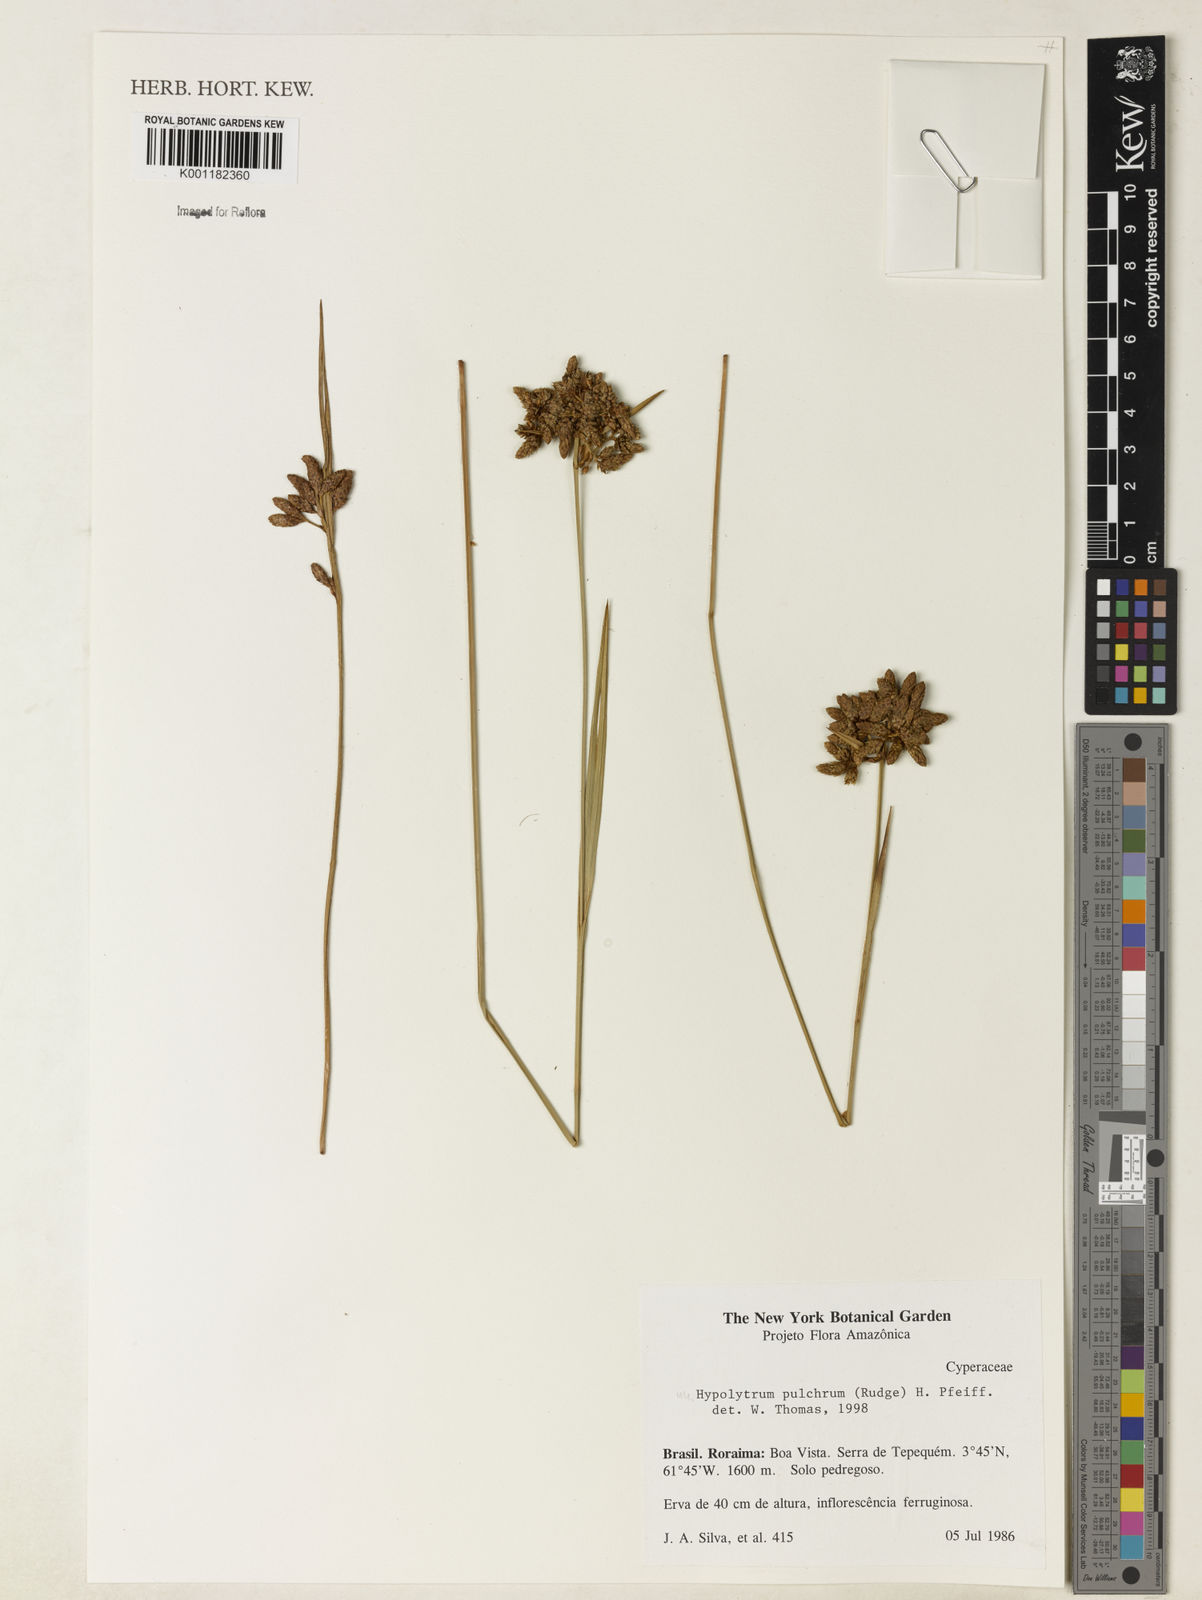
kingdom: Plantae
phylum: Tracheophyta
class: Liliopsida
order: Poales
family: Cyperaceae
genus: Hypolytrum
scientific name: Hypolytrum pulchrum
